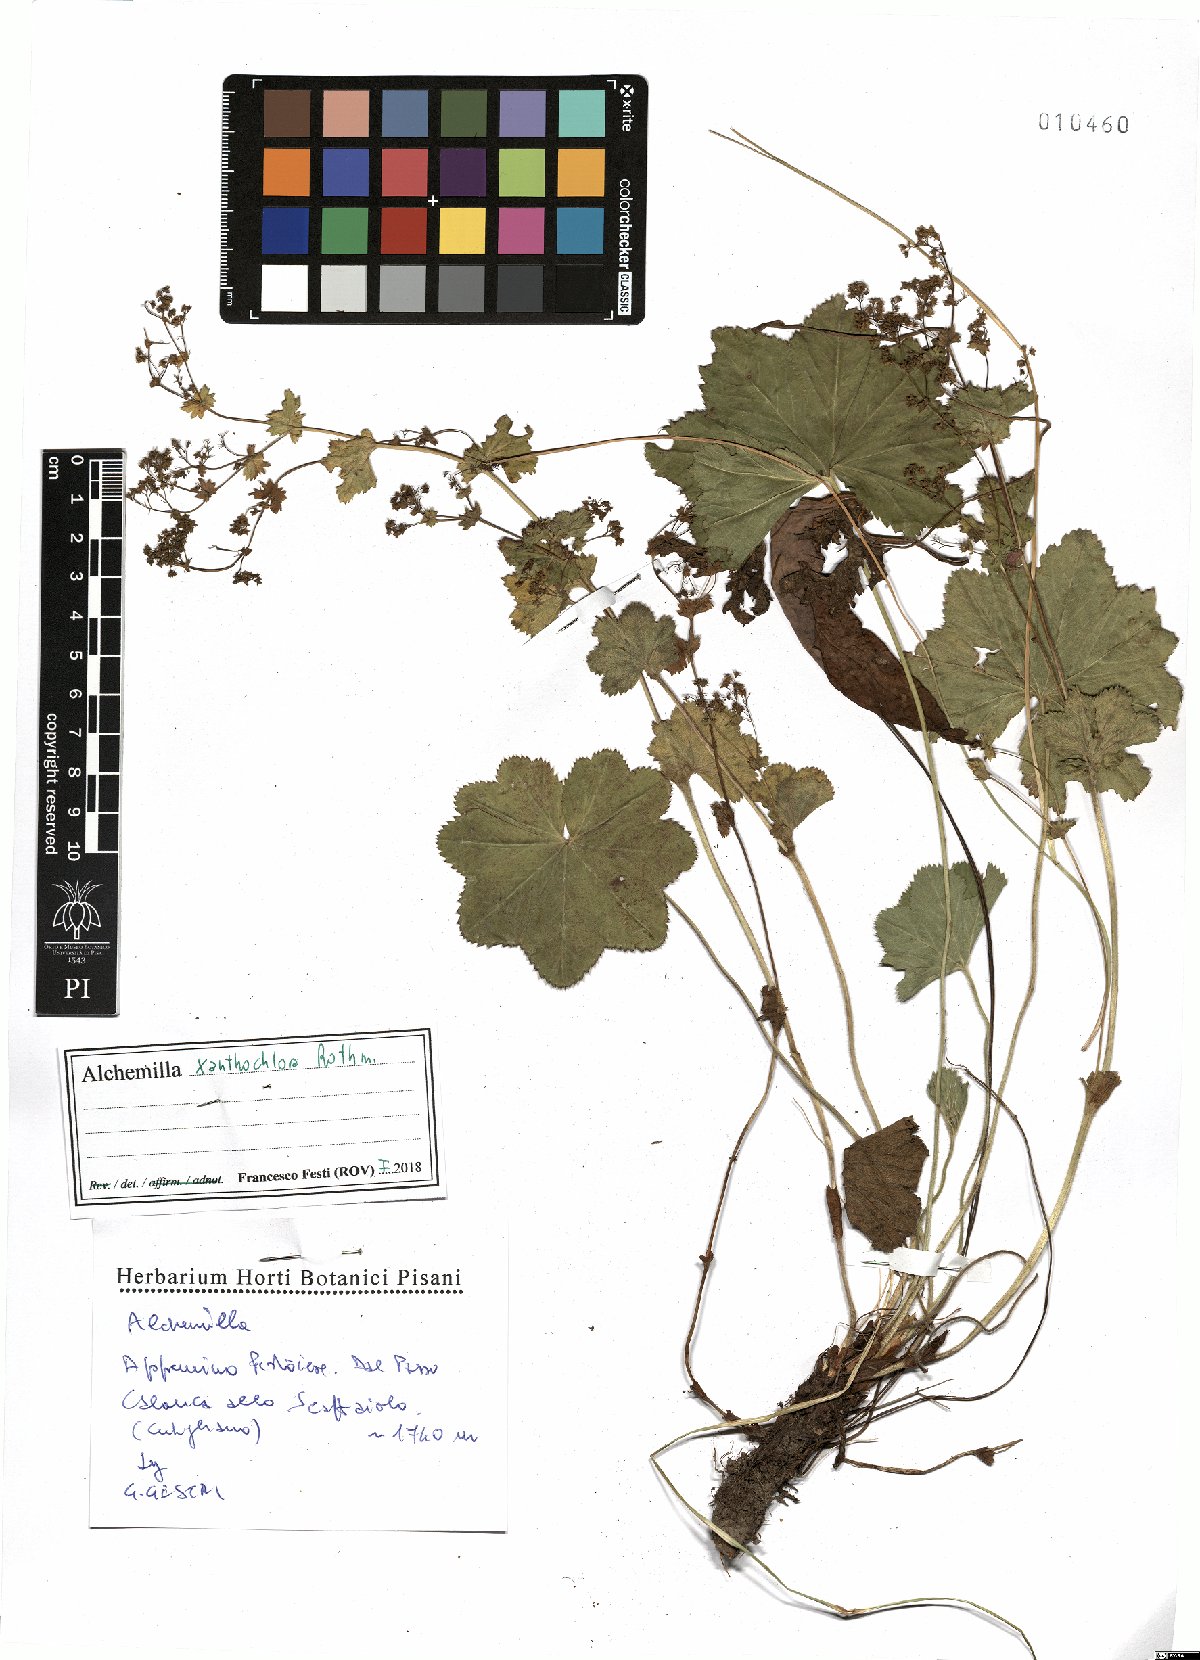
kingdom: Plantae
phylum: Tracheophyta
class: Magnoliopsida
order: Rosales
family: Rosaceae
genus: Alchemilla
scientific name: Alchemilla xanthochlora
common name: Intermediate lady's-mantle
